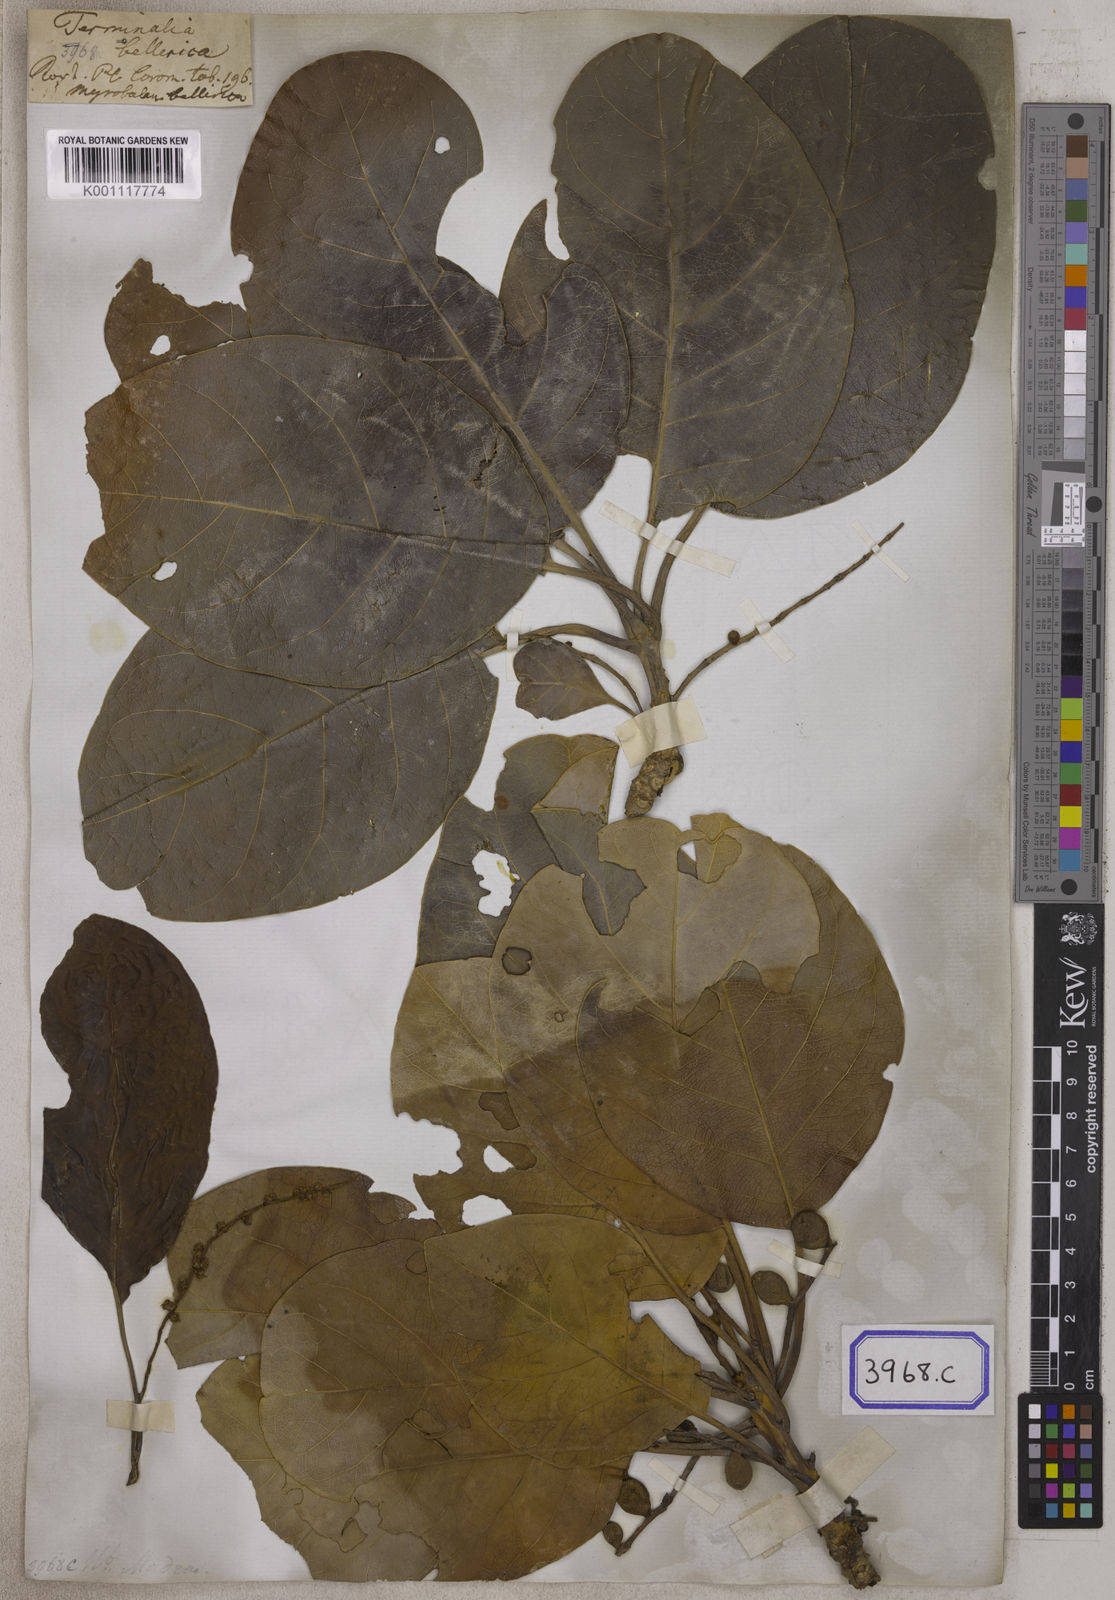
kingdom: Plantae
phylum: Tracheophyta
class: Magnoliopsida
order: Myrtales
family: Combretaceae
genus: Terminalia
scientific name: Terminalia bellirica
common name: Beleric myrobalan
